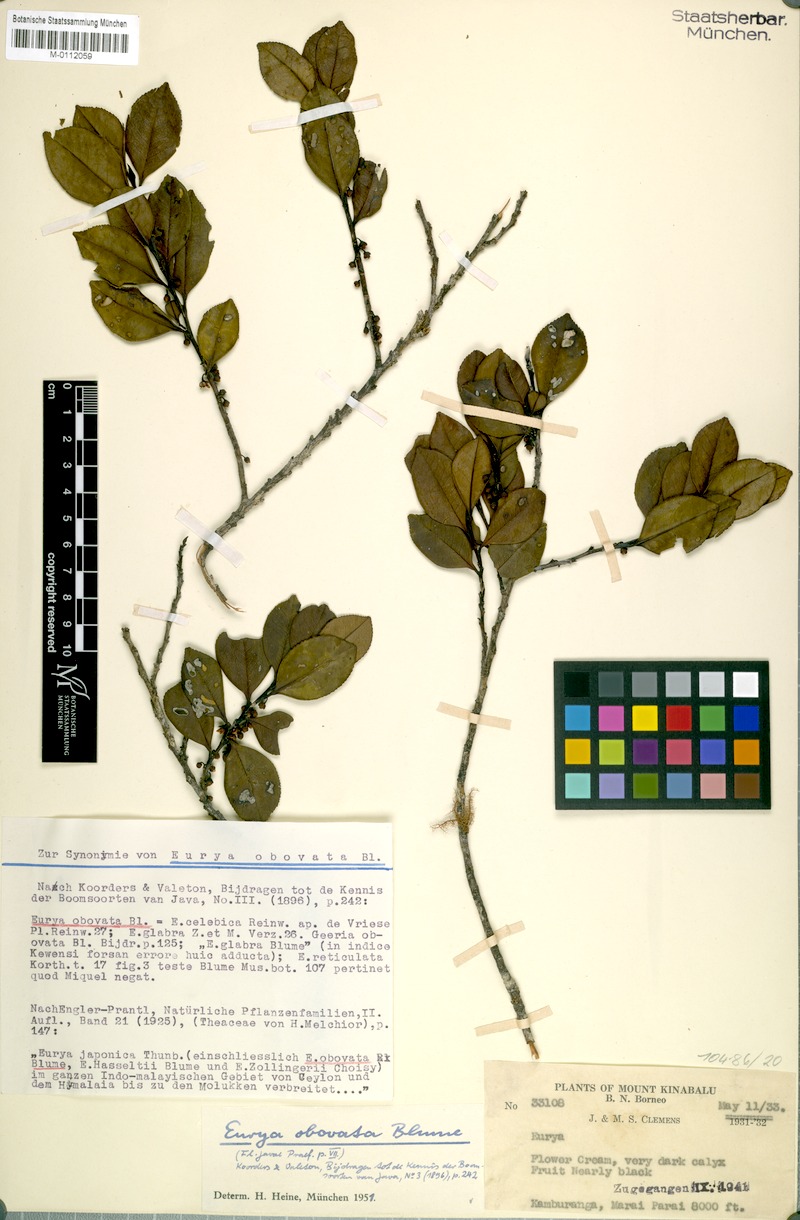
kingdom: Plantae
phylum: Tracheophyta
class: Magnoliopsida
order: Ericales
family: Pentaphylacaceae
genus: Eurya
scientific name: Eurya obovata
